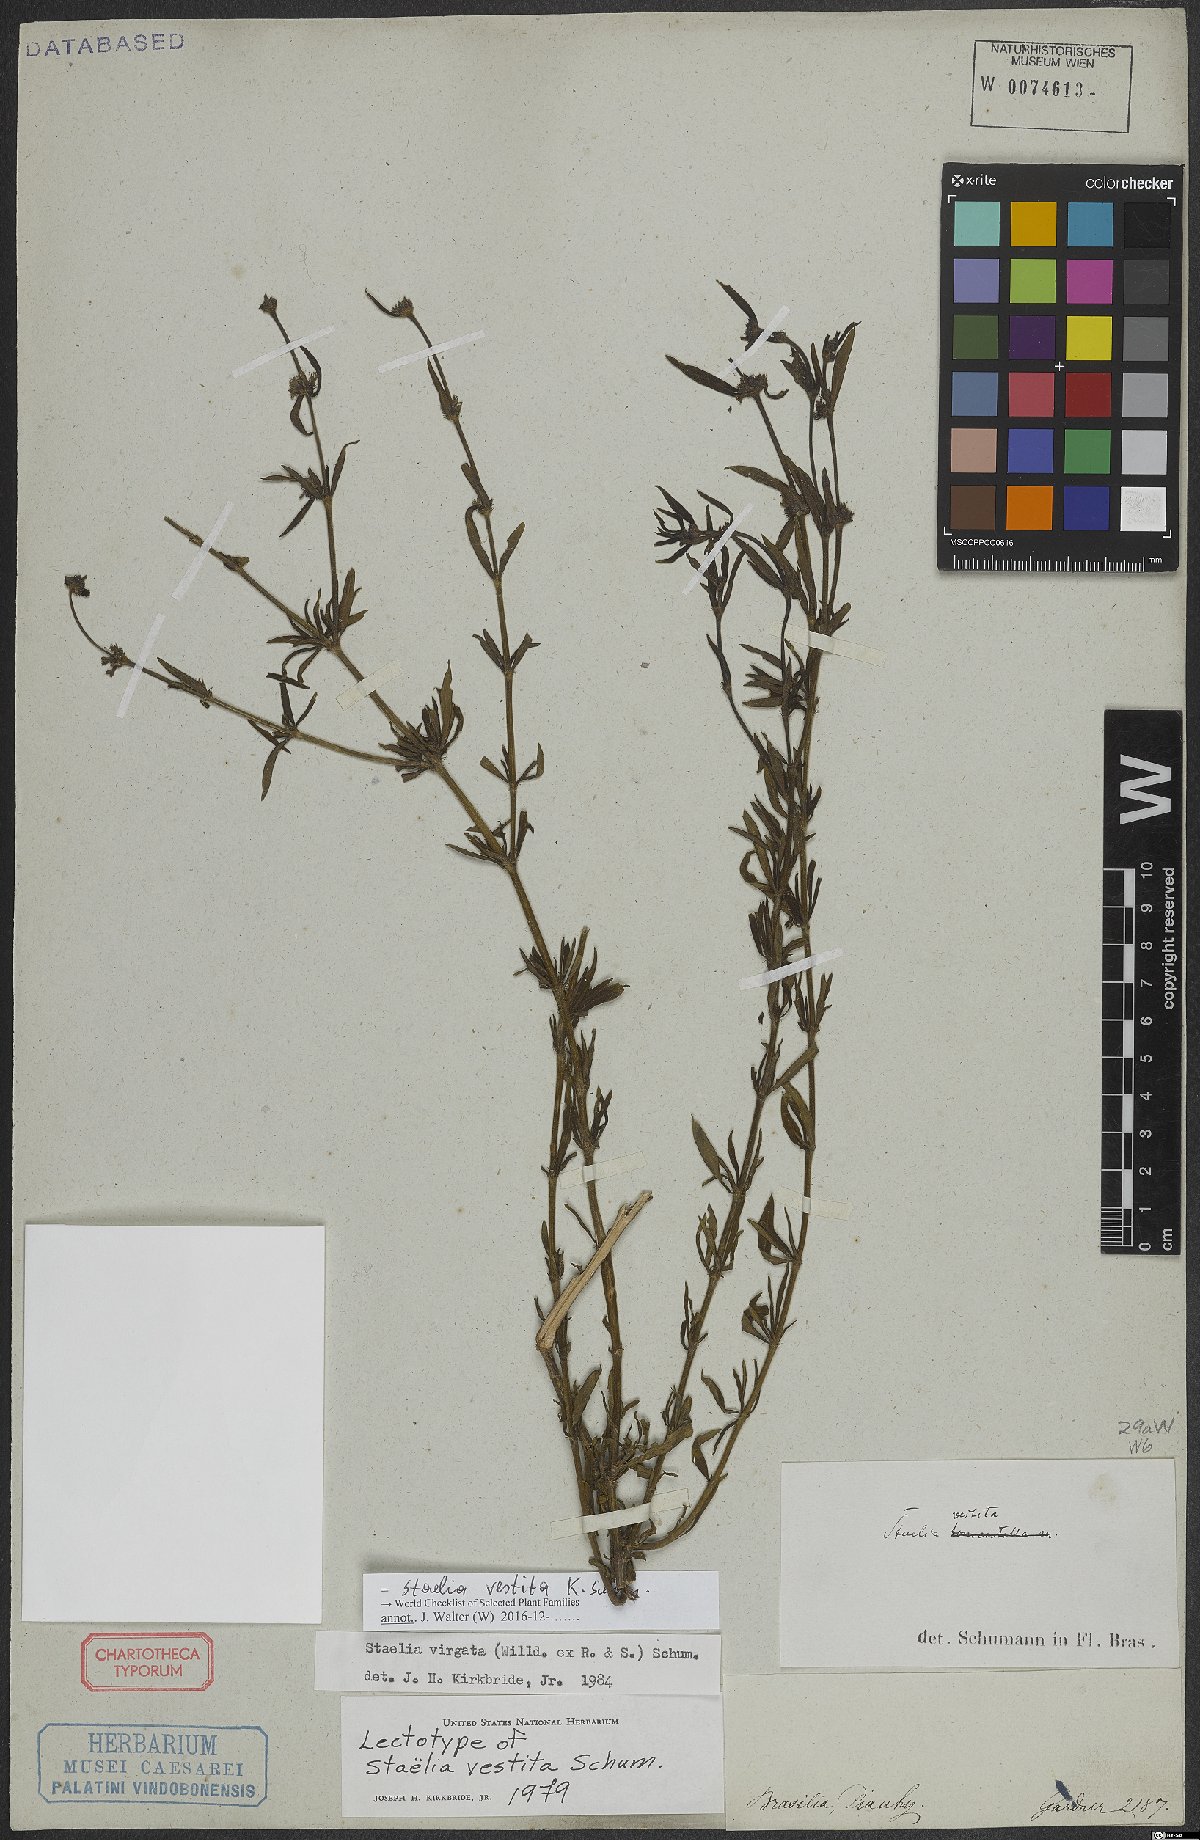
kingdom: Plantae
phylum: Tracheophyta
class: Magnoliopsida
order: Gentianales
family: Rubiaceae
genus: Staelia
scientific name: Staelia vestita
